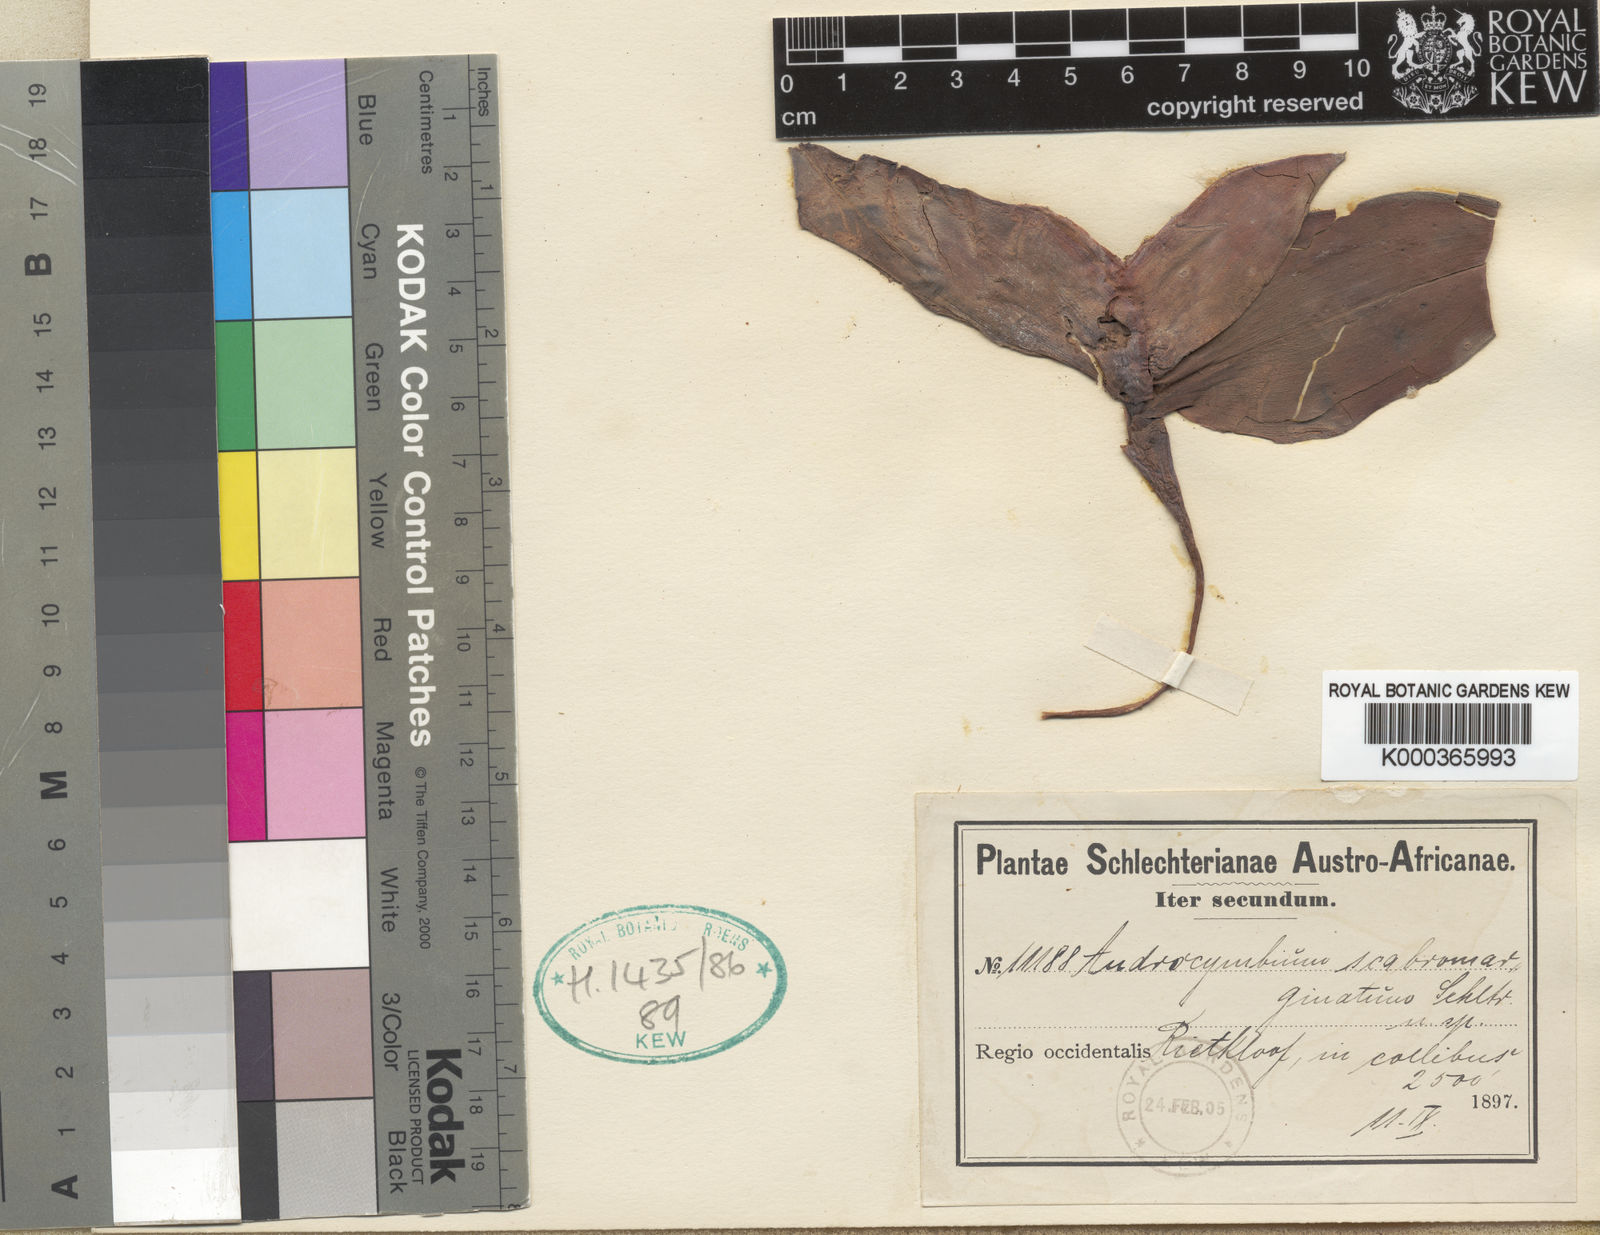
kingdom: Plantae
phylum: Tracheophyta
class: Liliopsida
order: Liliales
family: Colchicaceae
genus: Colchicum
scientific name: Colchicum scabromarginatum
